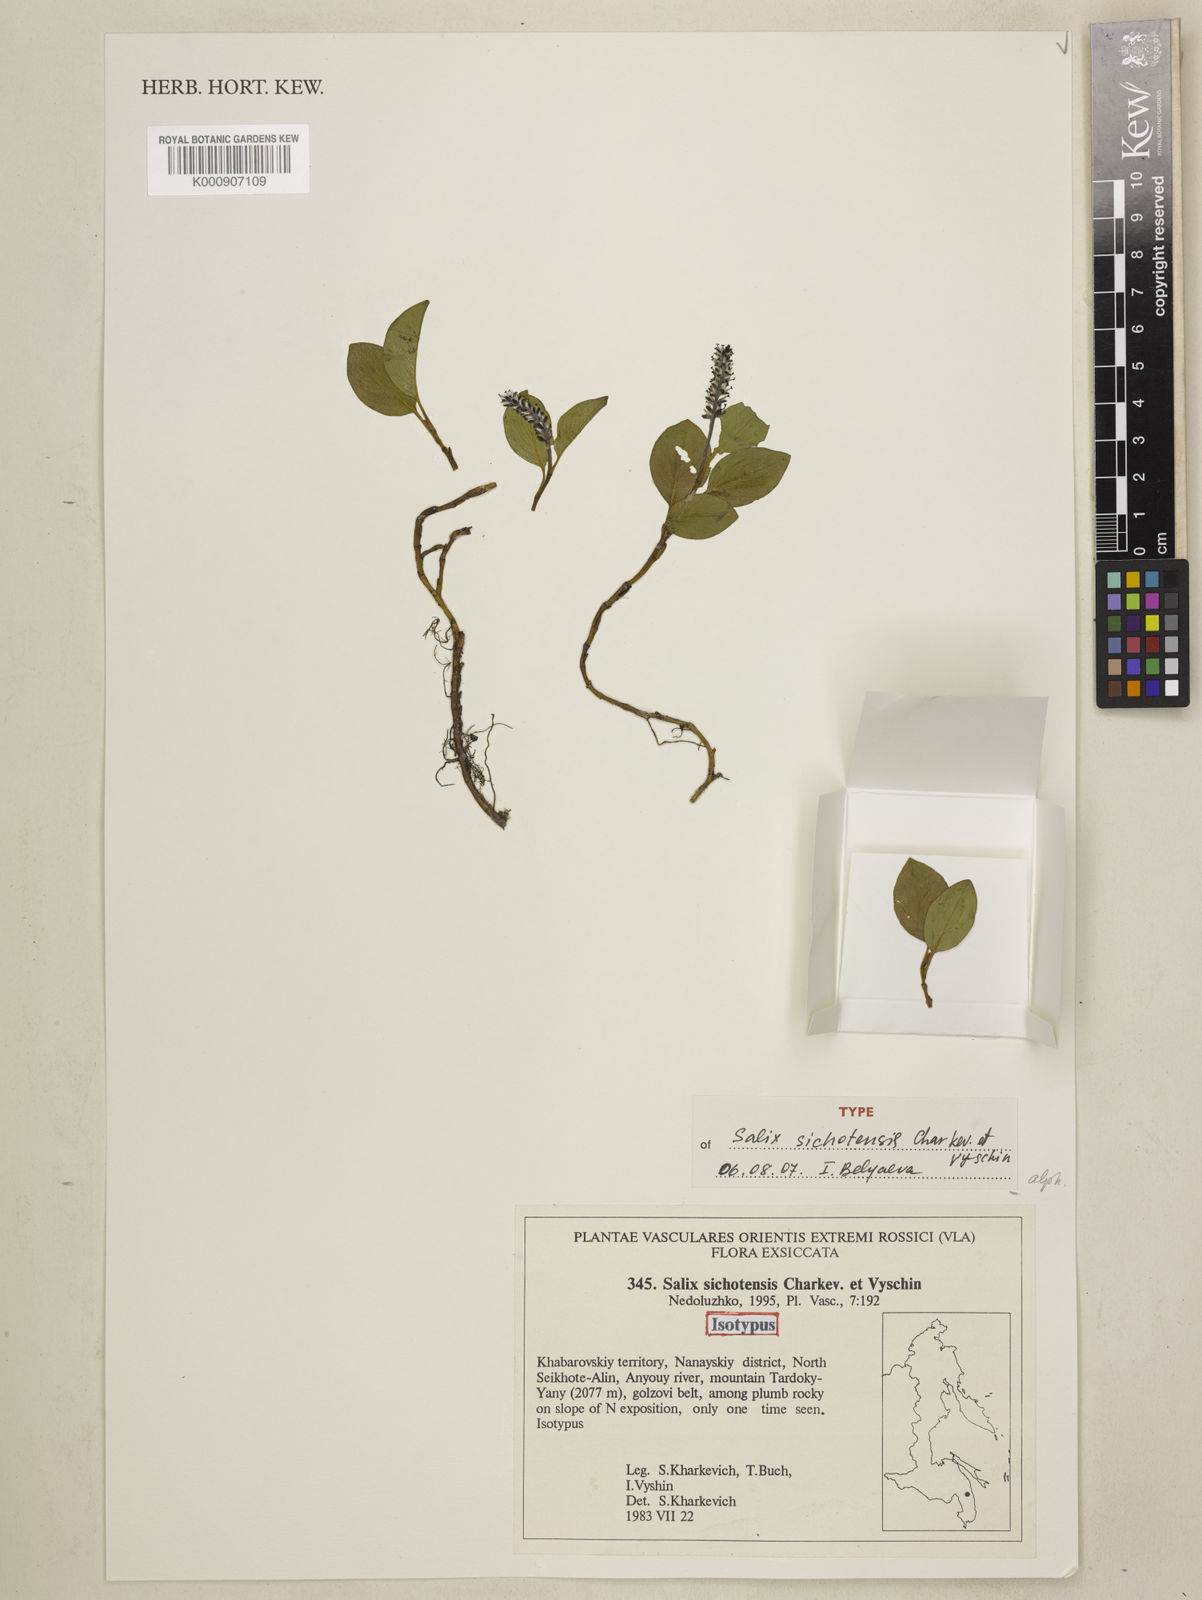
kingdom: Plantae
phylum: Tracheophyta
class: Magnoliopsida
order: Malpighiales
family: Salicaceae
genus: Salix
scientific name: Salix nasarovii
